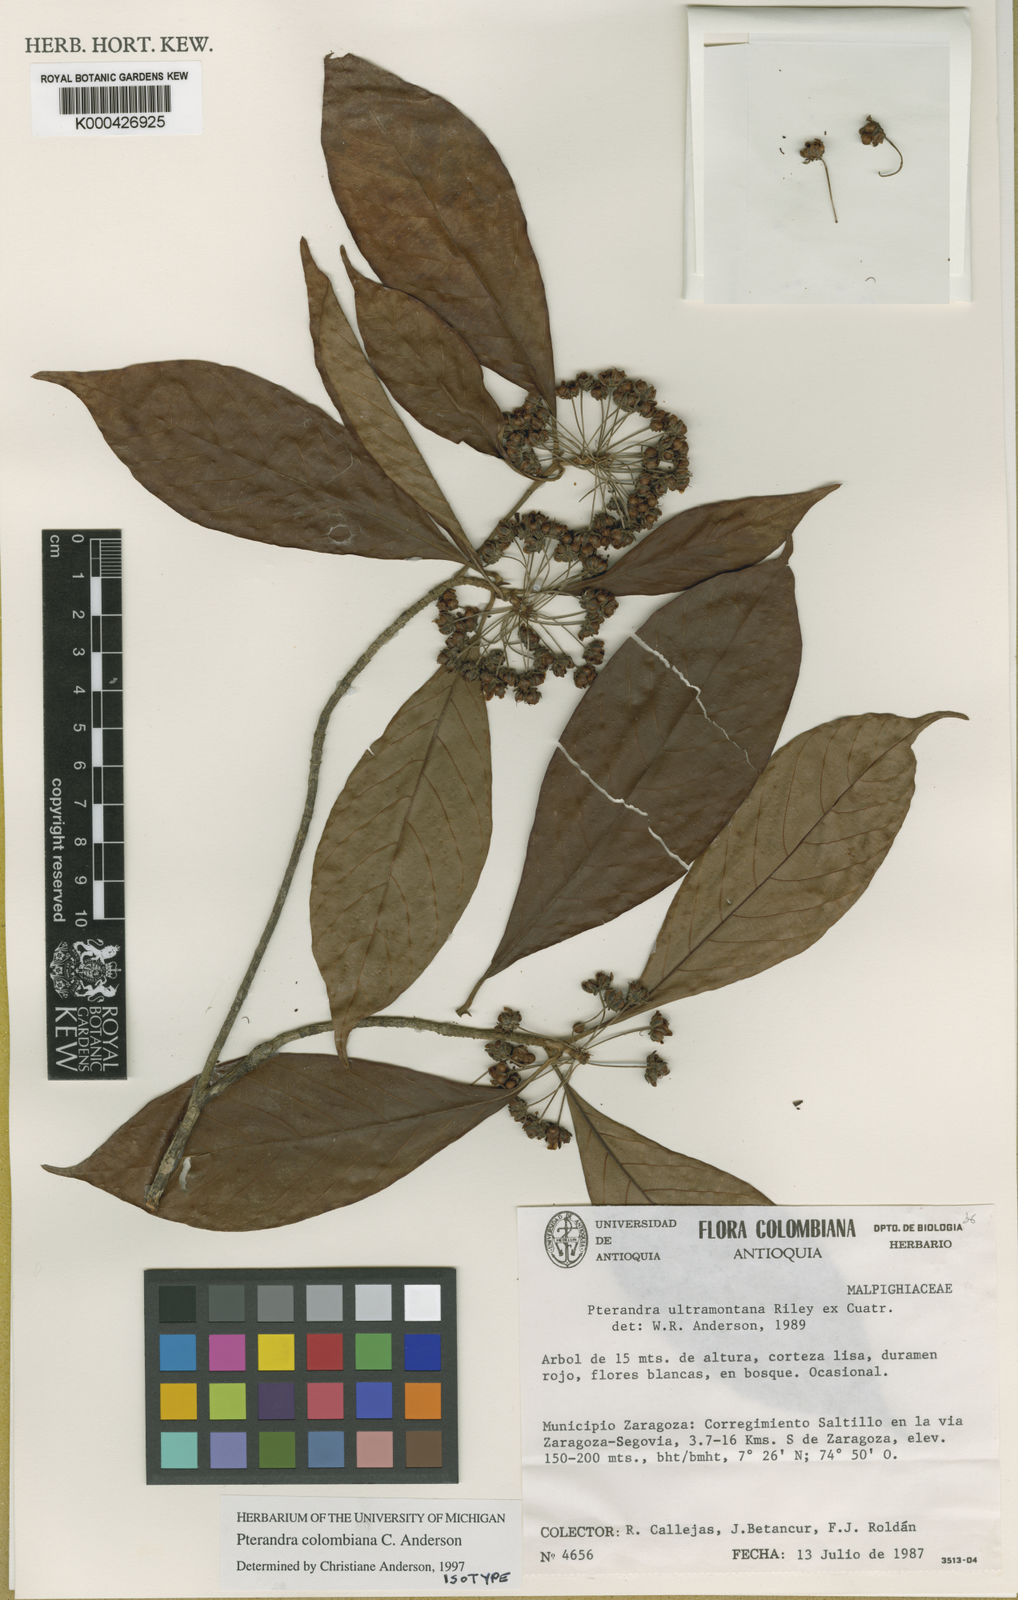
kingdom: Plantae
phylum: Tracheophyta
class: Magnoliopsida
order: Malpighiales
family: Malpighiaceae
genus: Pterandra
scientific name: Pterandra colombiana
